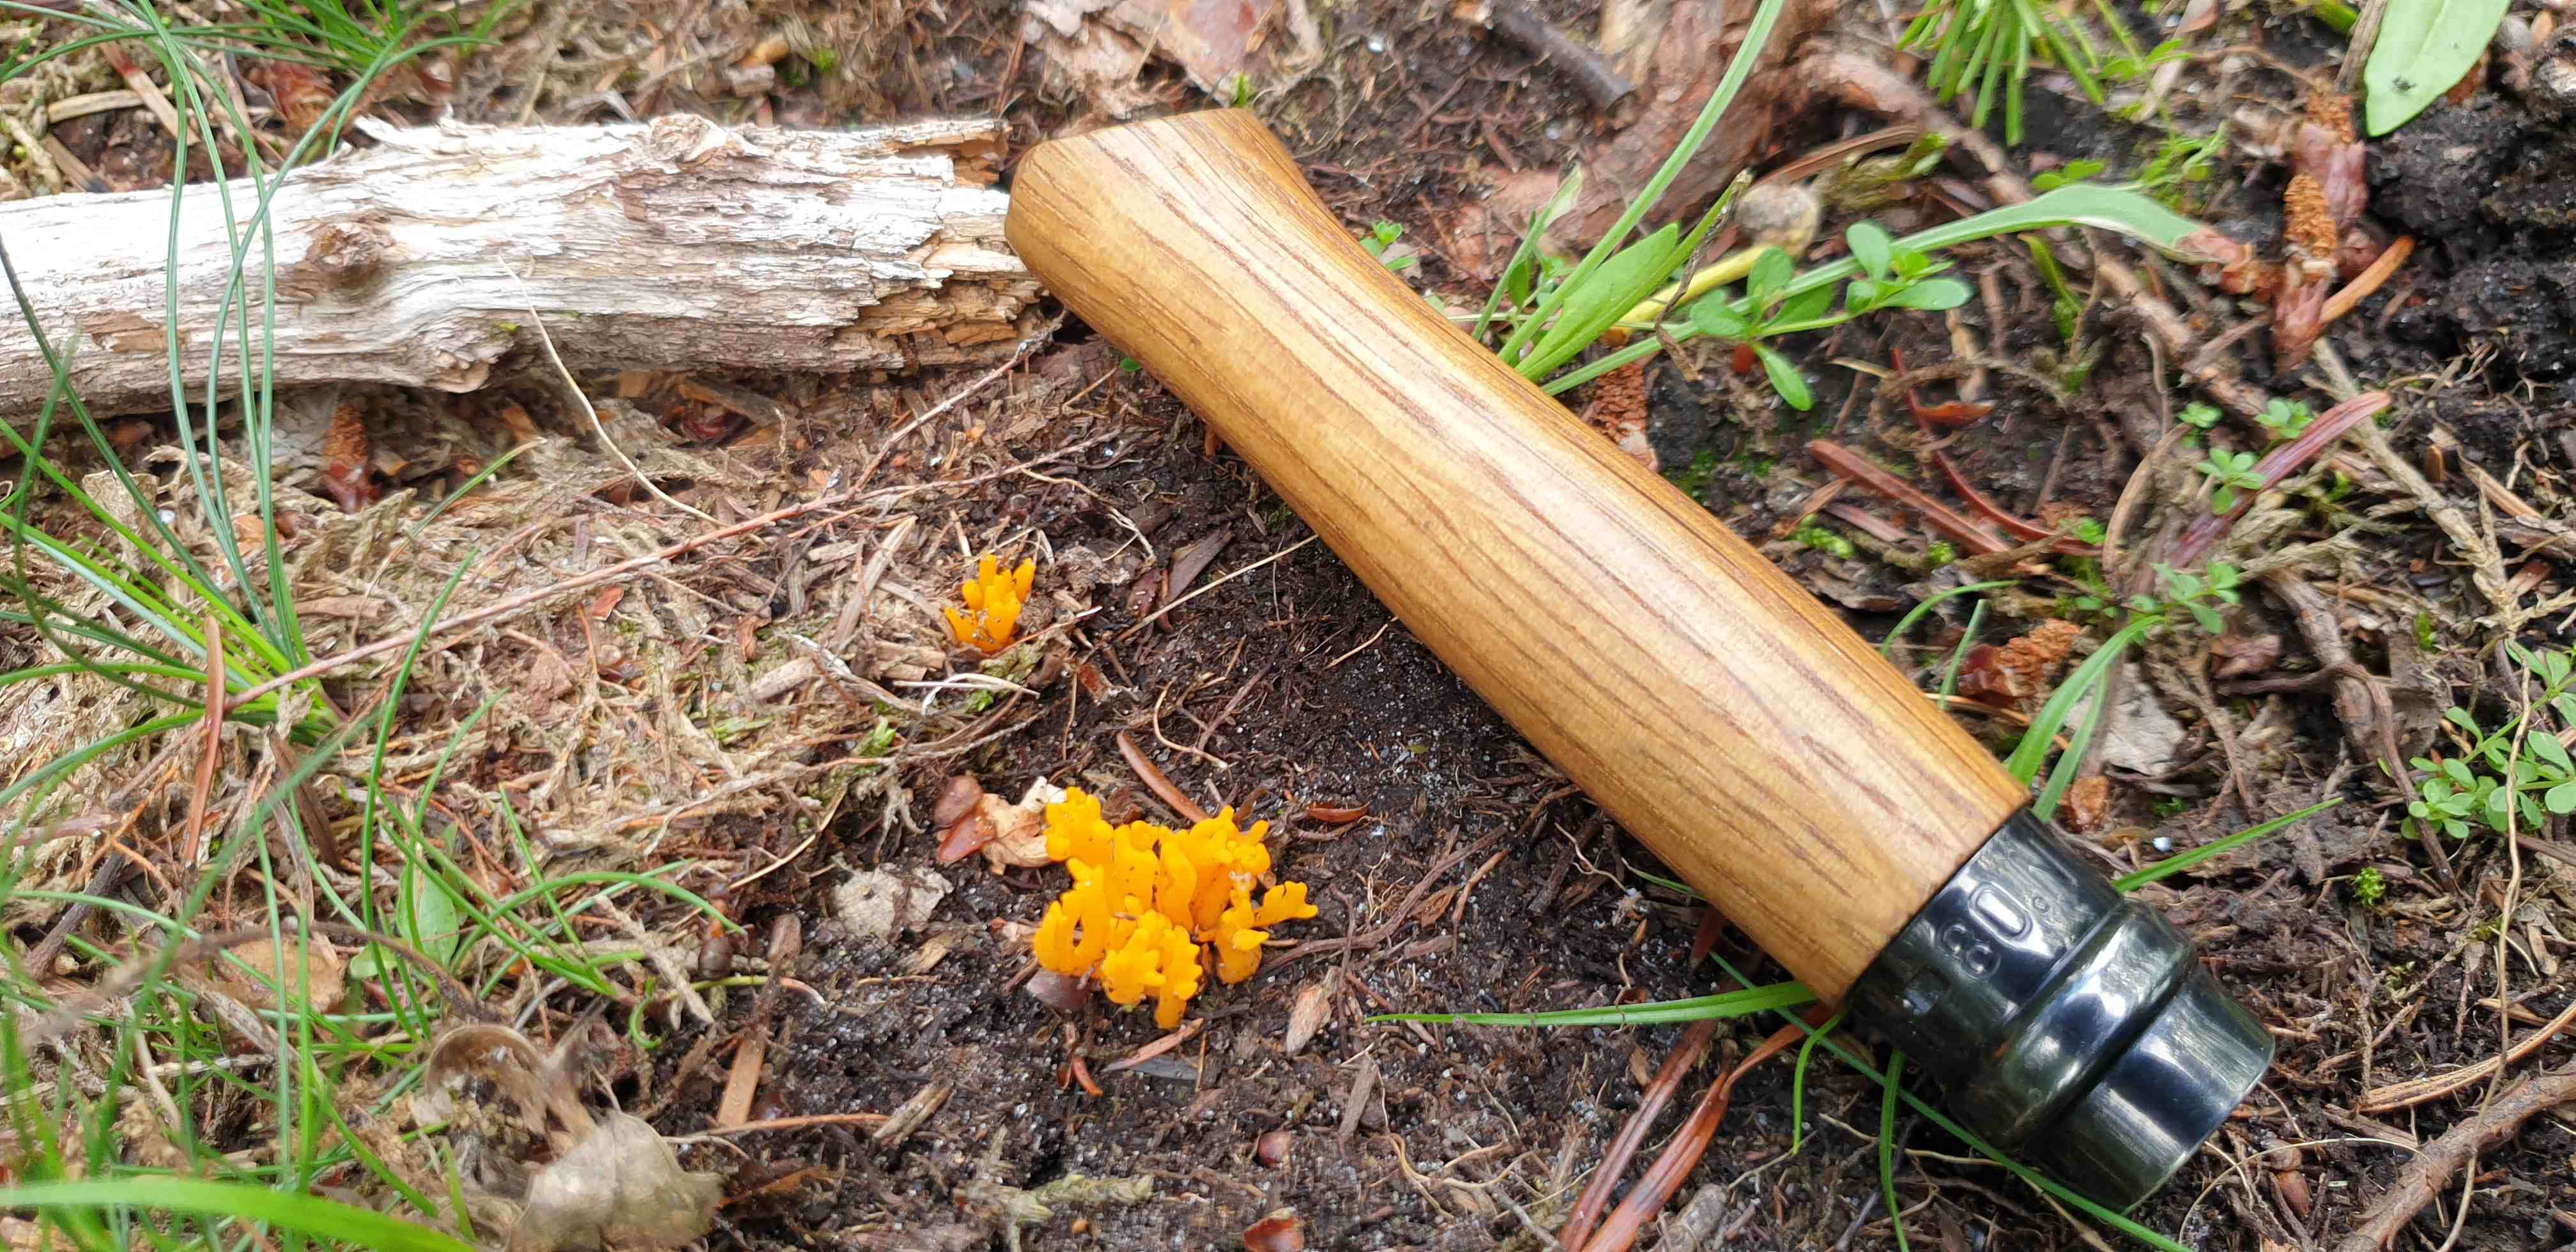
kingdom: Fungi
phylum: Basidiomycota
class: Dacrymycetes
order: Dacrymycetales
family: Dacrymycetaceae
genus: Calocera
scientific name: Calocera viscosa
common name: almindelig guldgaffel
